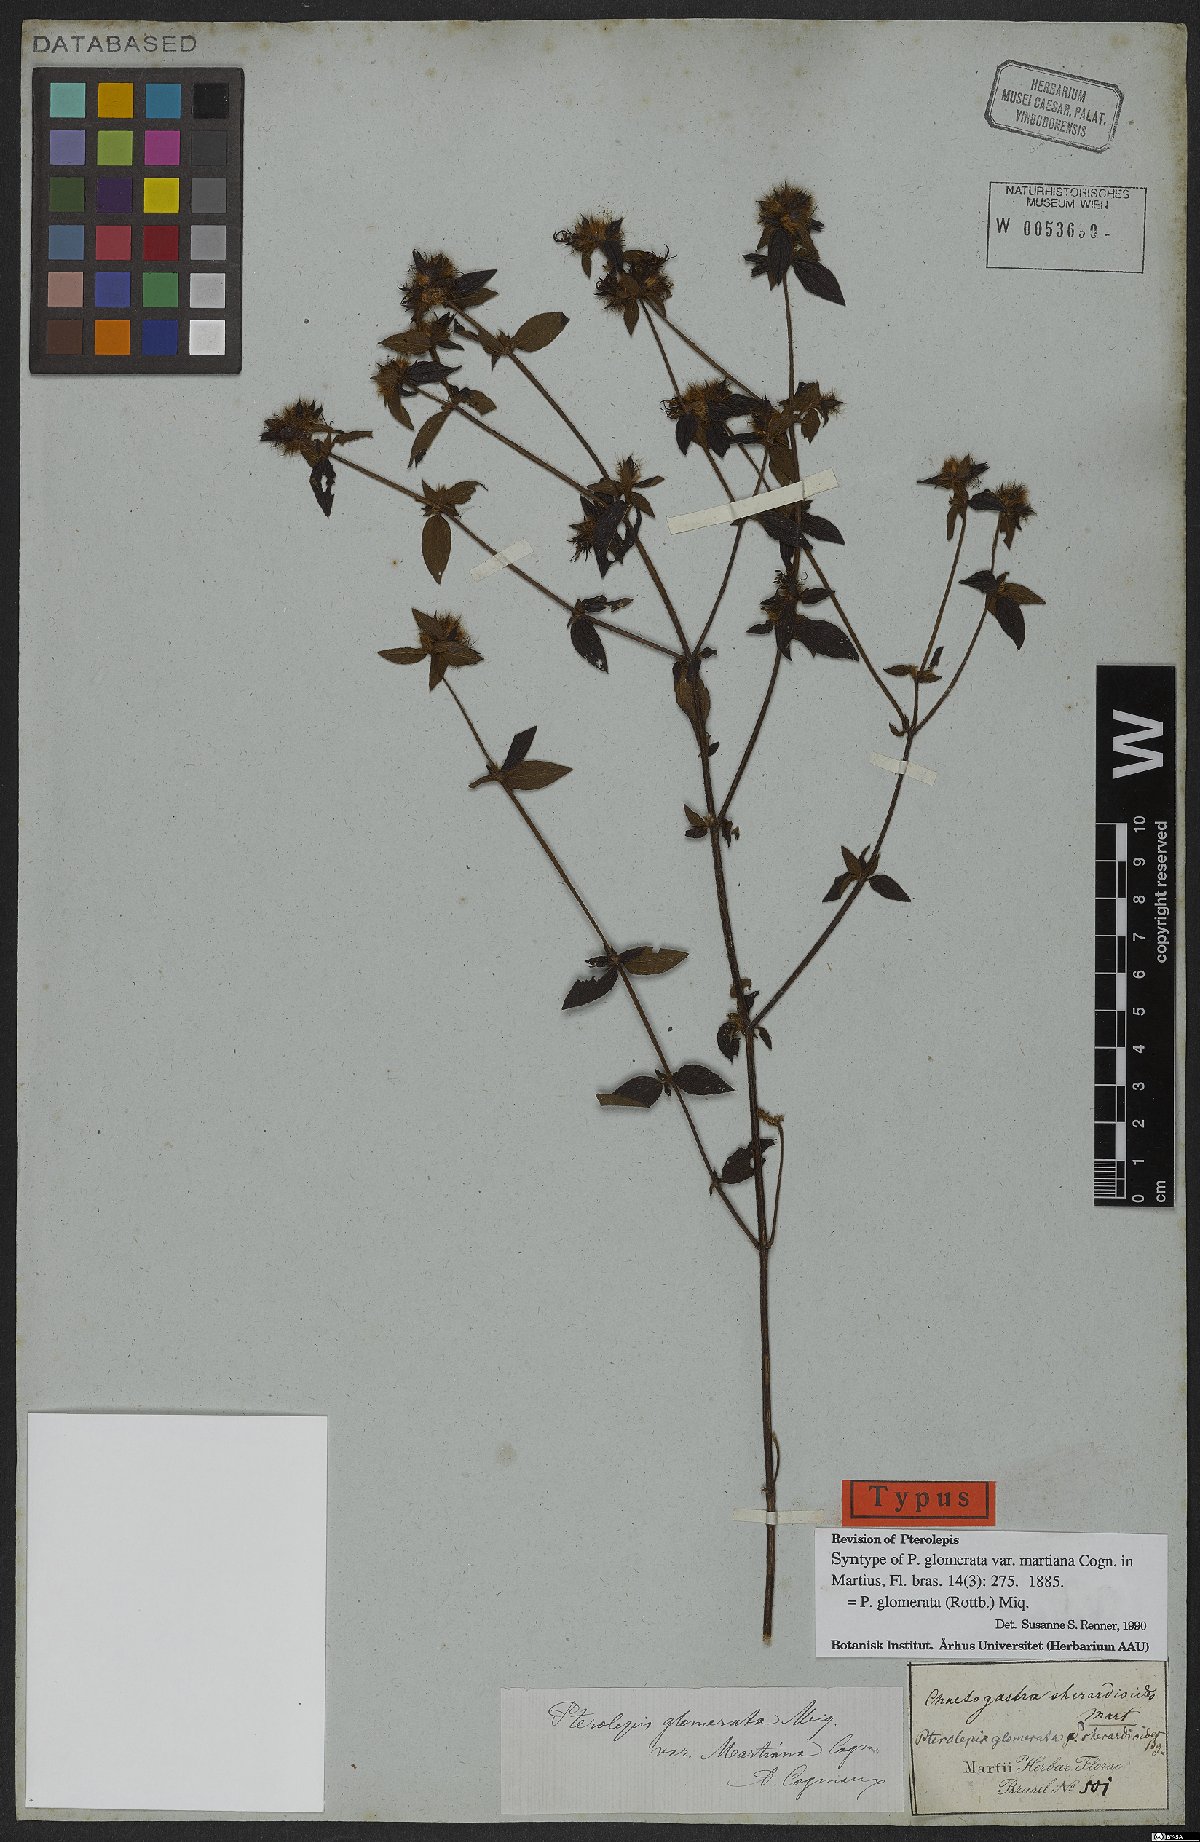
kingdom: Plantae
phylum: Tracheophyta
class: Magnoliopsida
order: Myrtales
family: Melastomataceae
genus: Pterolepis
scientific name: Pterolepis glomerata
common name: False meadowbeauty
